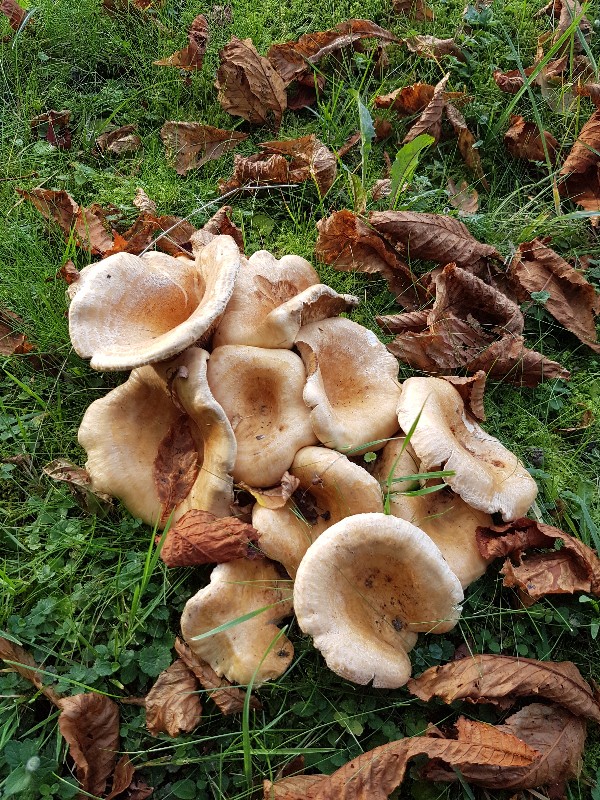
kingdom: Fungi
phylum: Basidiomycota
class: Agaricomycetes
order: Russulales
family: Russulaceae
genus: Lactarius
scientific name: Lactarius zonarius
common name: zoneret mælkehat
